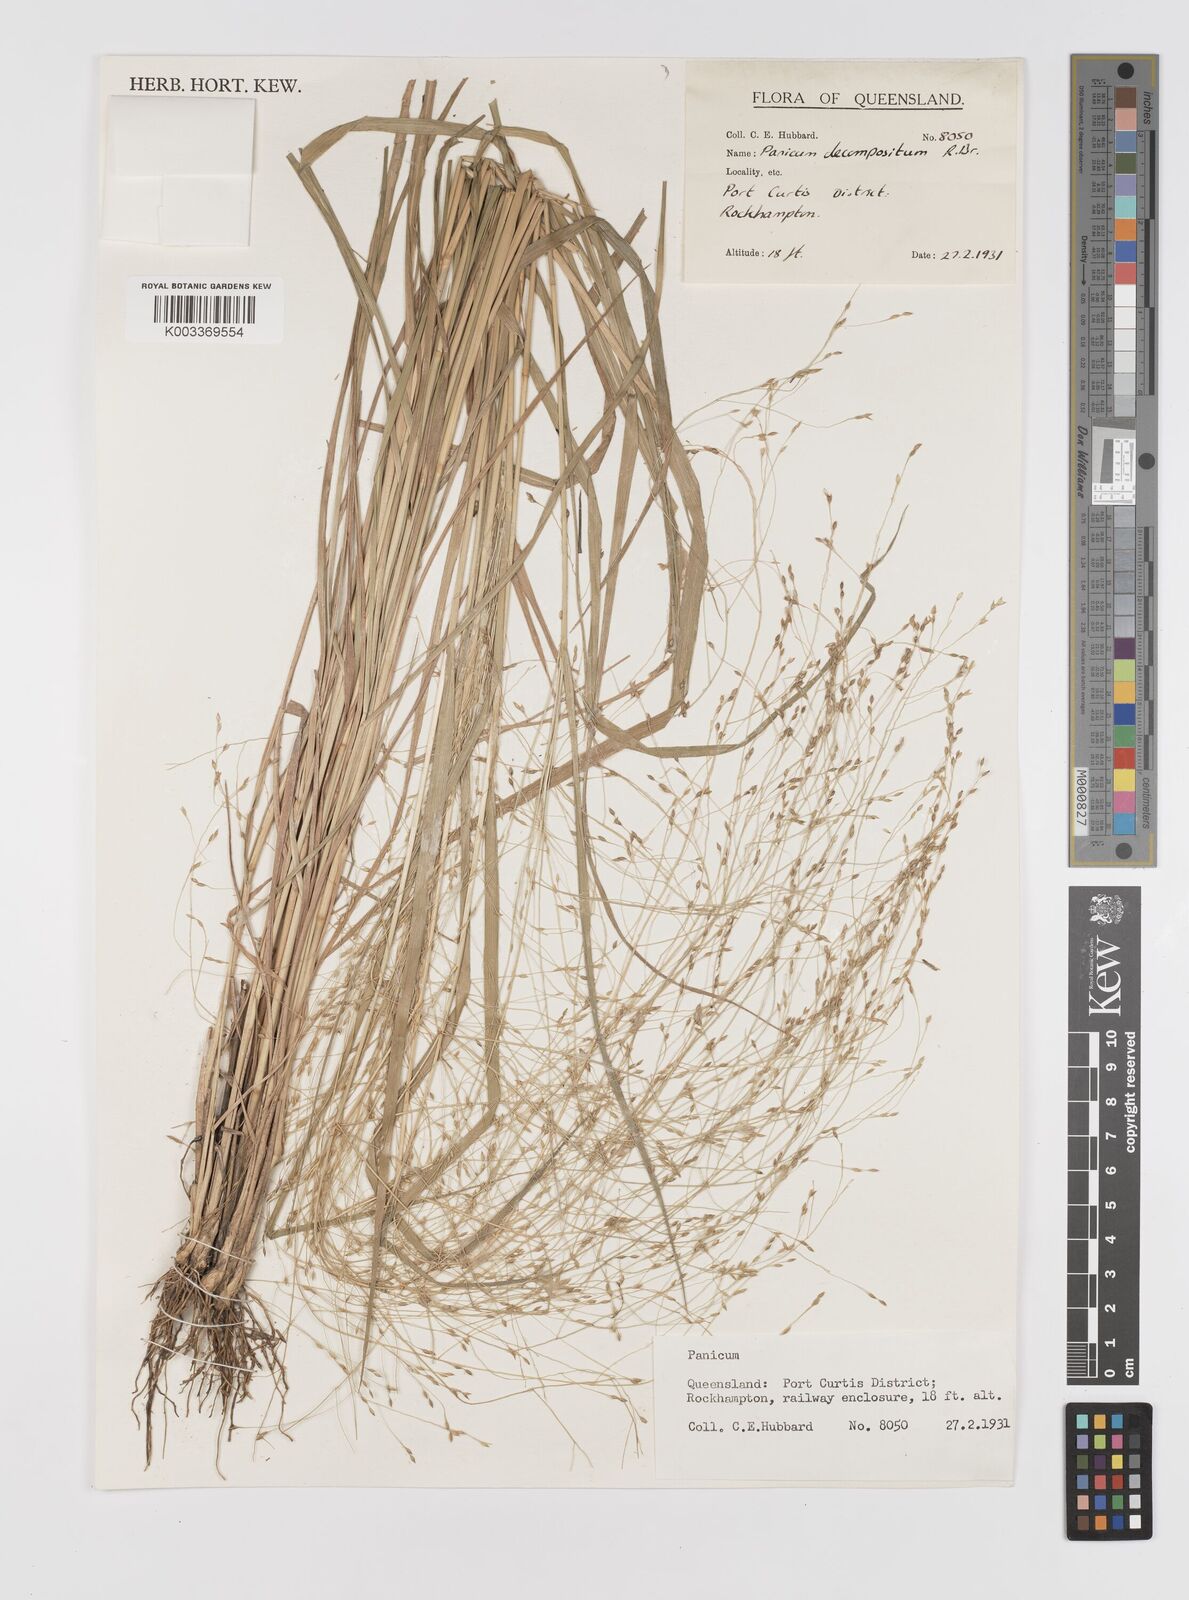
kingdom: Plantae
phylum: Tracheophyta
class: Liliopsida
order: Poales
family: Poaceae
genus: Panicum
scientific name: Panicum decompositum
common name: Australian millet
